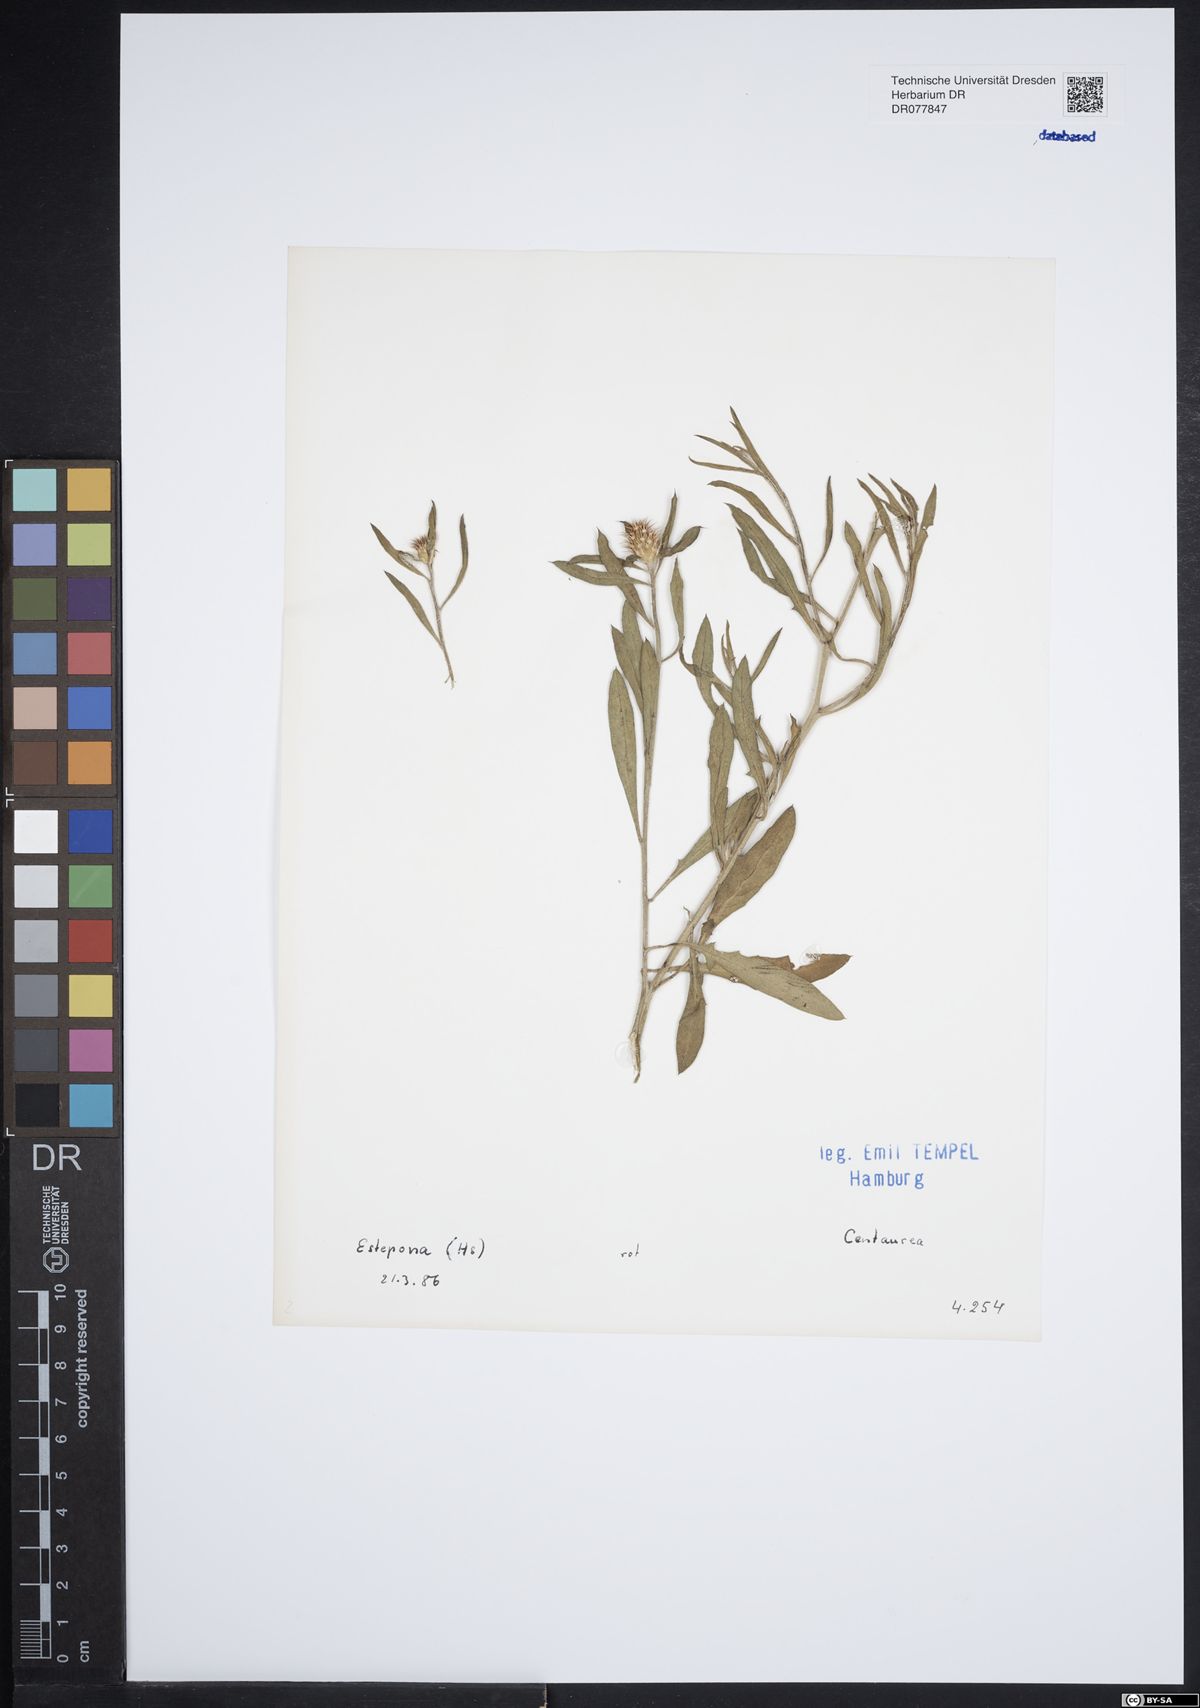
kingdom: Plantae
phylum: Tracheophyta
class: Magnoliopsida
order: Asterales
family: Asteraceae
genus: Centaurea
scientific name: Centaurea
